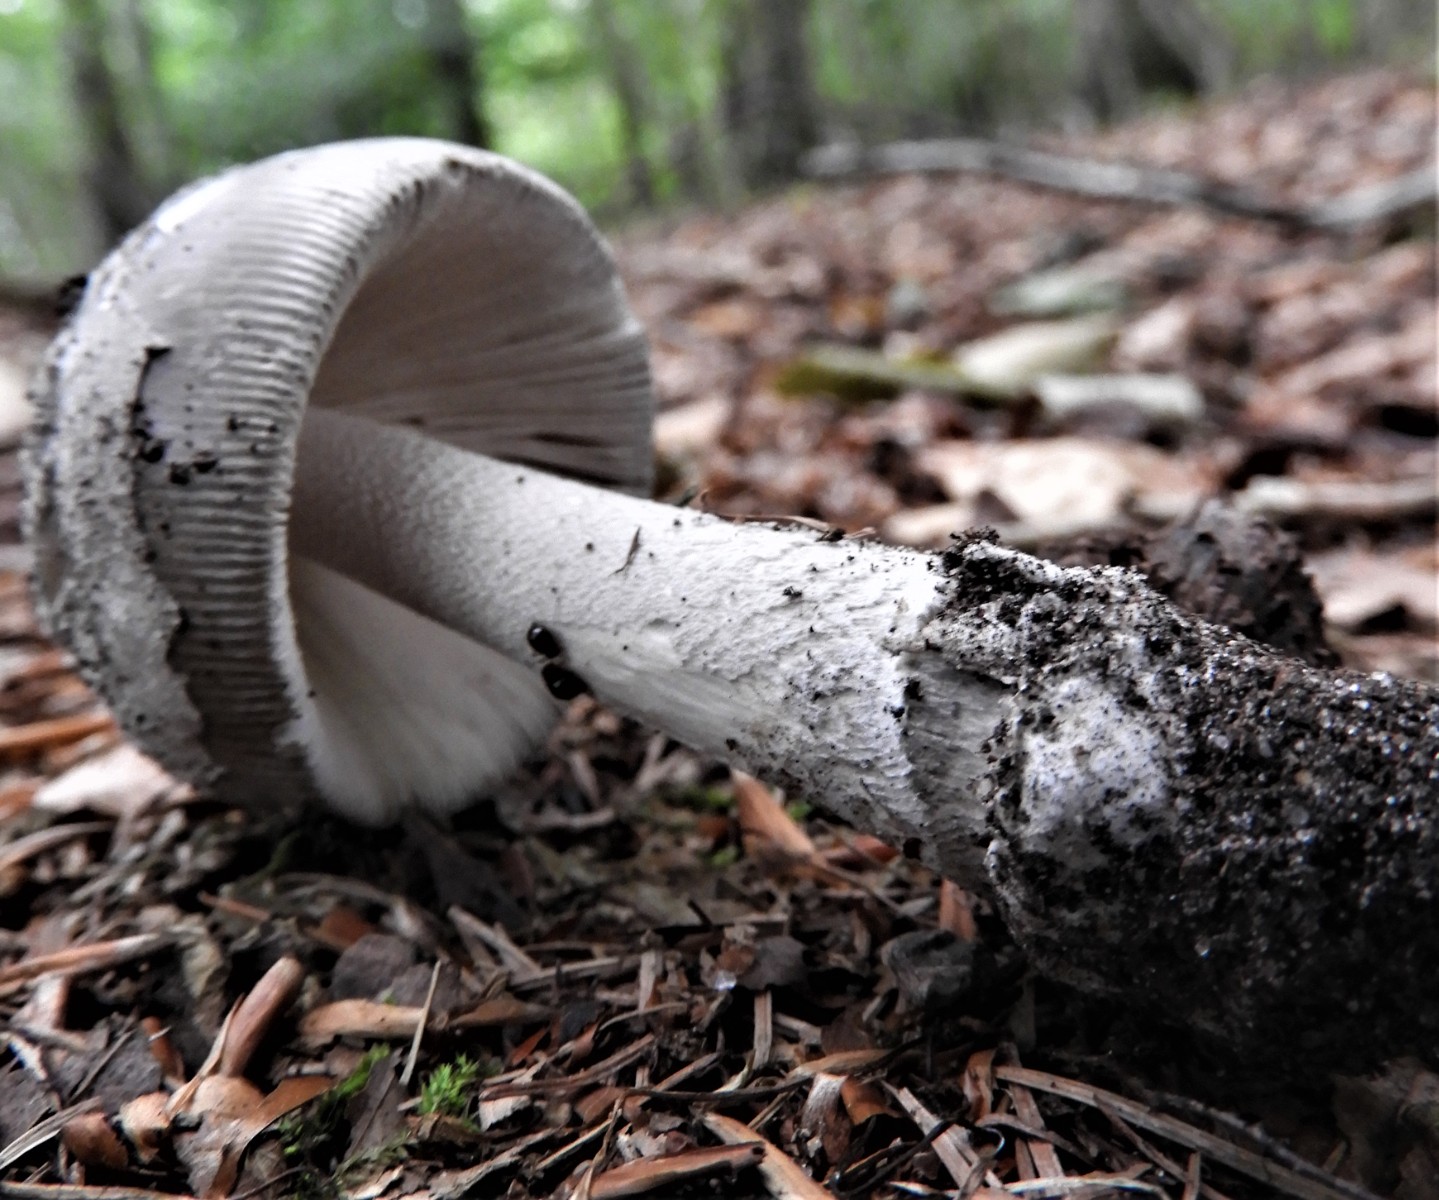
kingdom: Fungi
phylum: Basidiomycota
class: Agaricomycetes
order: Agaricales
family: Amanitaceae
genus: Amanita
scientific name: Amanita
